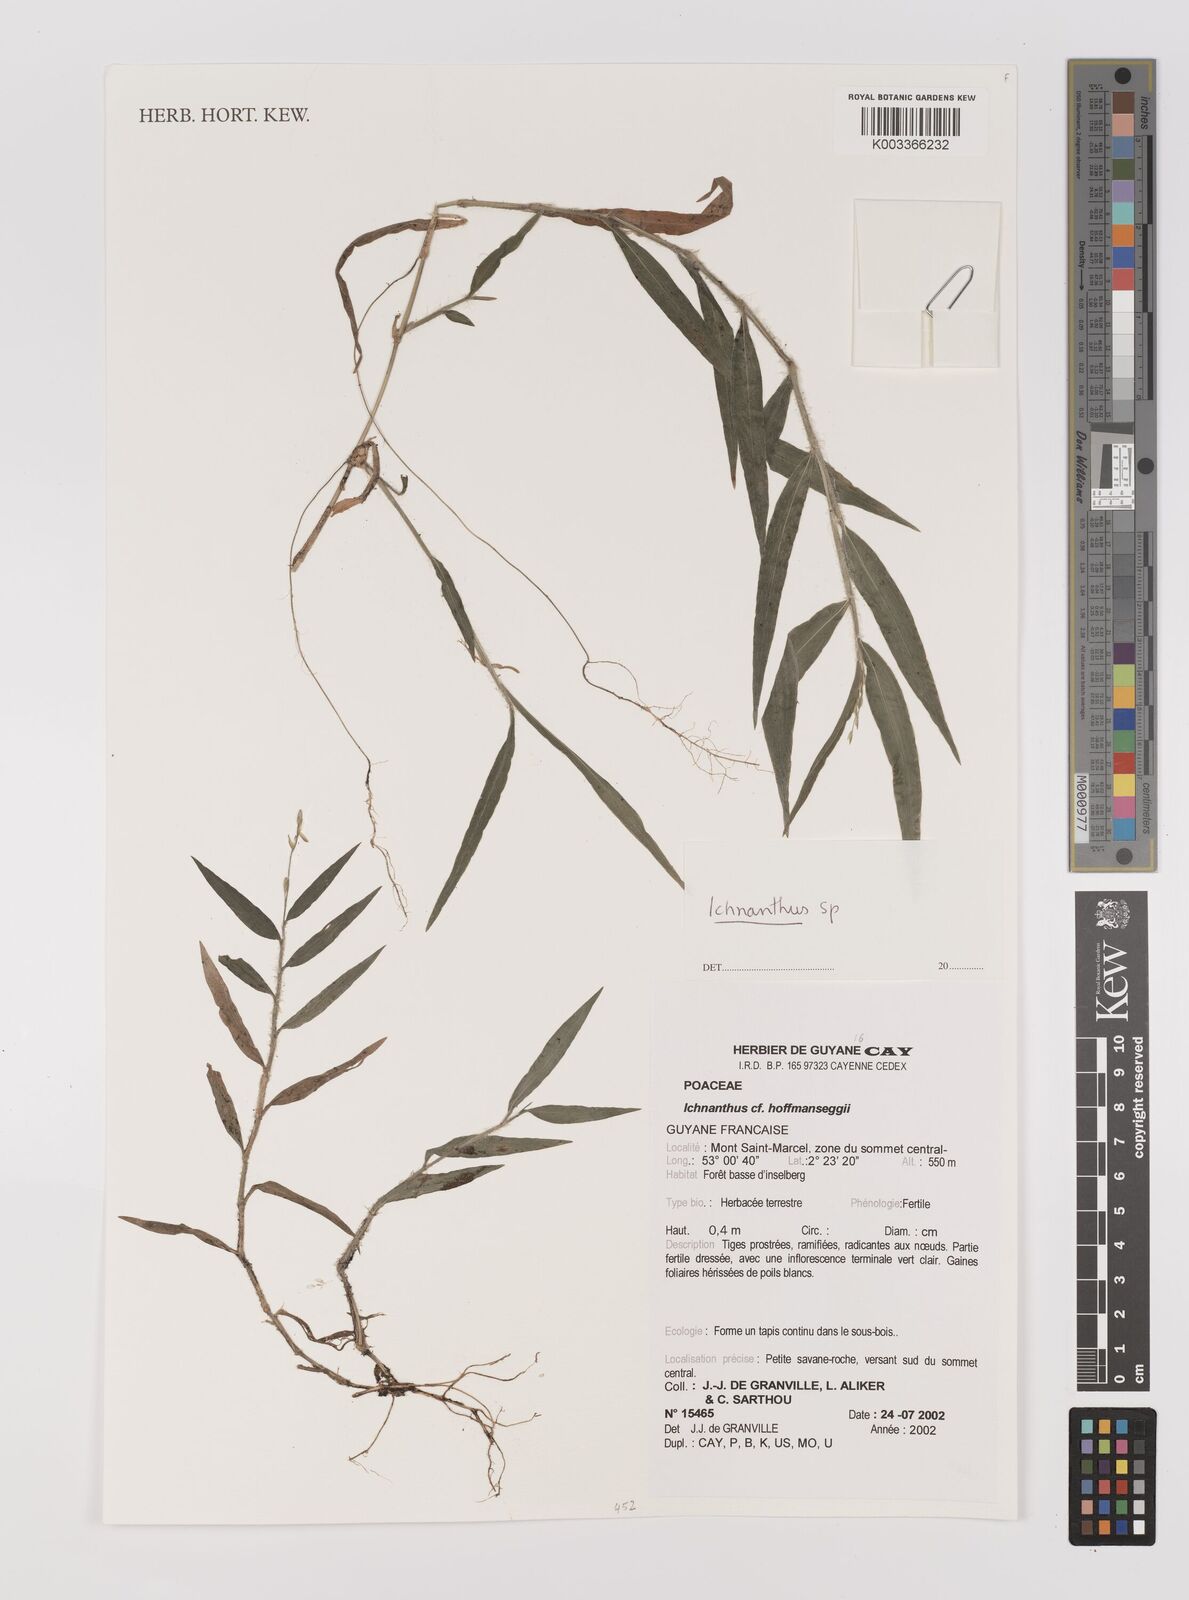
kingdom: Plantae
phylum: Tracheophyta
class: Liliopsida
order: Poales
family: Poaceae
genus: Ichnanthus
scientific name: Ichnanthus
